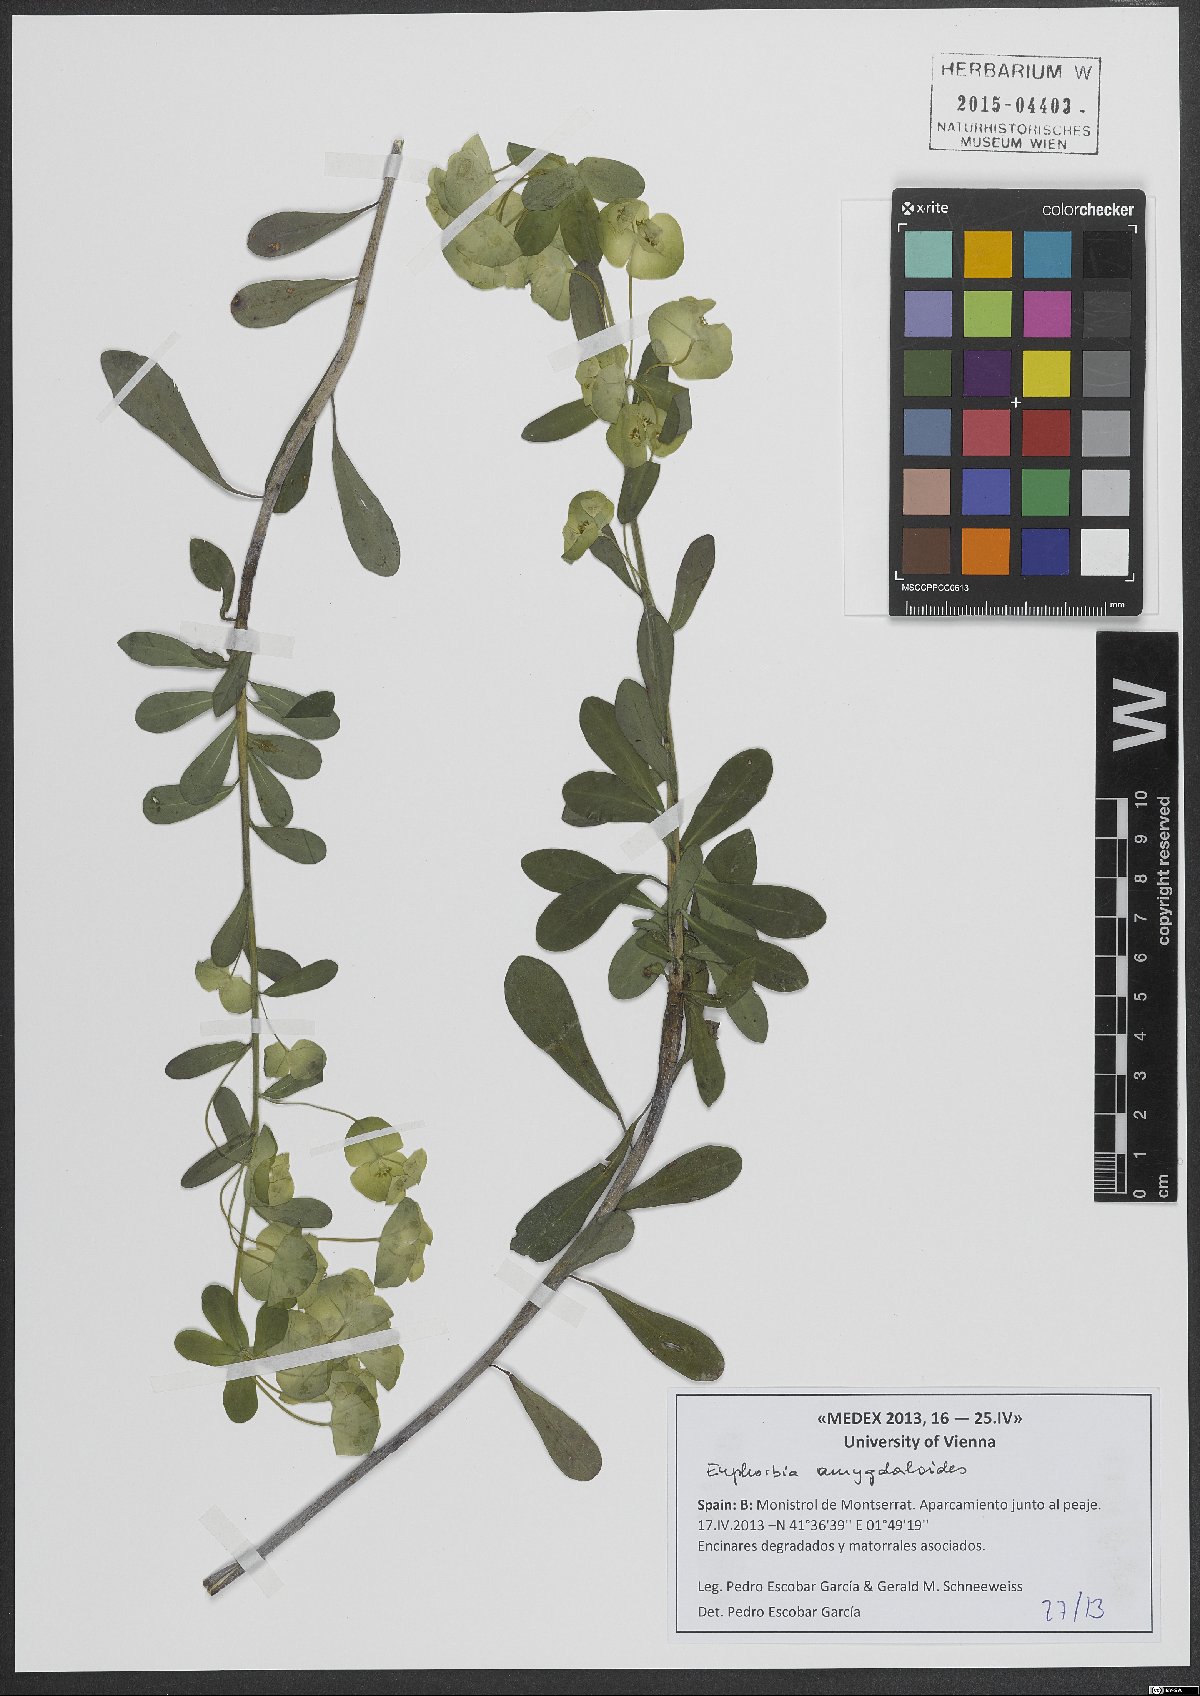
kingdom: Plantae
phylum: Tracheophyta
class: Magnoliopsida
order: Malpighiales
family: Euphorbiaceae
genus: Euphorbia
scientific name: Euphorbia amygdaloides
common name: Wood spurge
